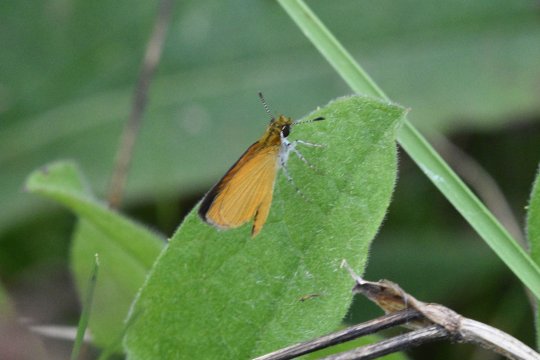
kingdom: Animalia
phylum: Arthropoda
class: Insecta
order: Lepidoptera
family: Hesperiidae
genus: Ancyloxypha
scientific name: Ancyloxypha numitor
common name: Least Skipper
